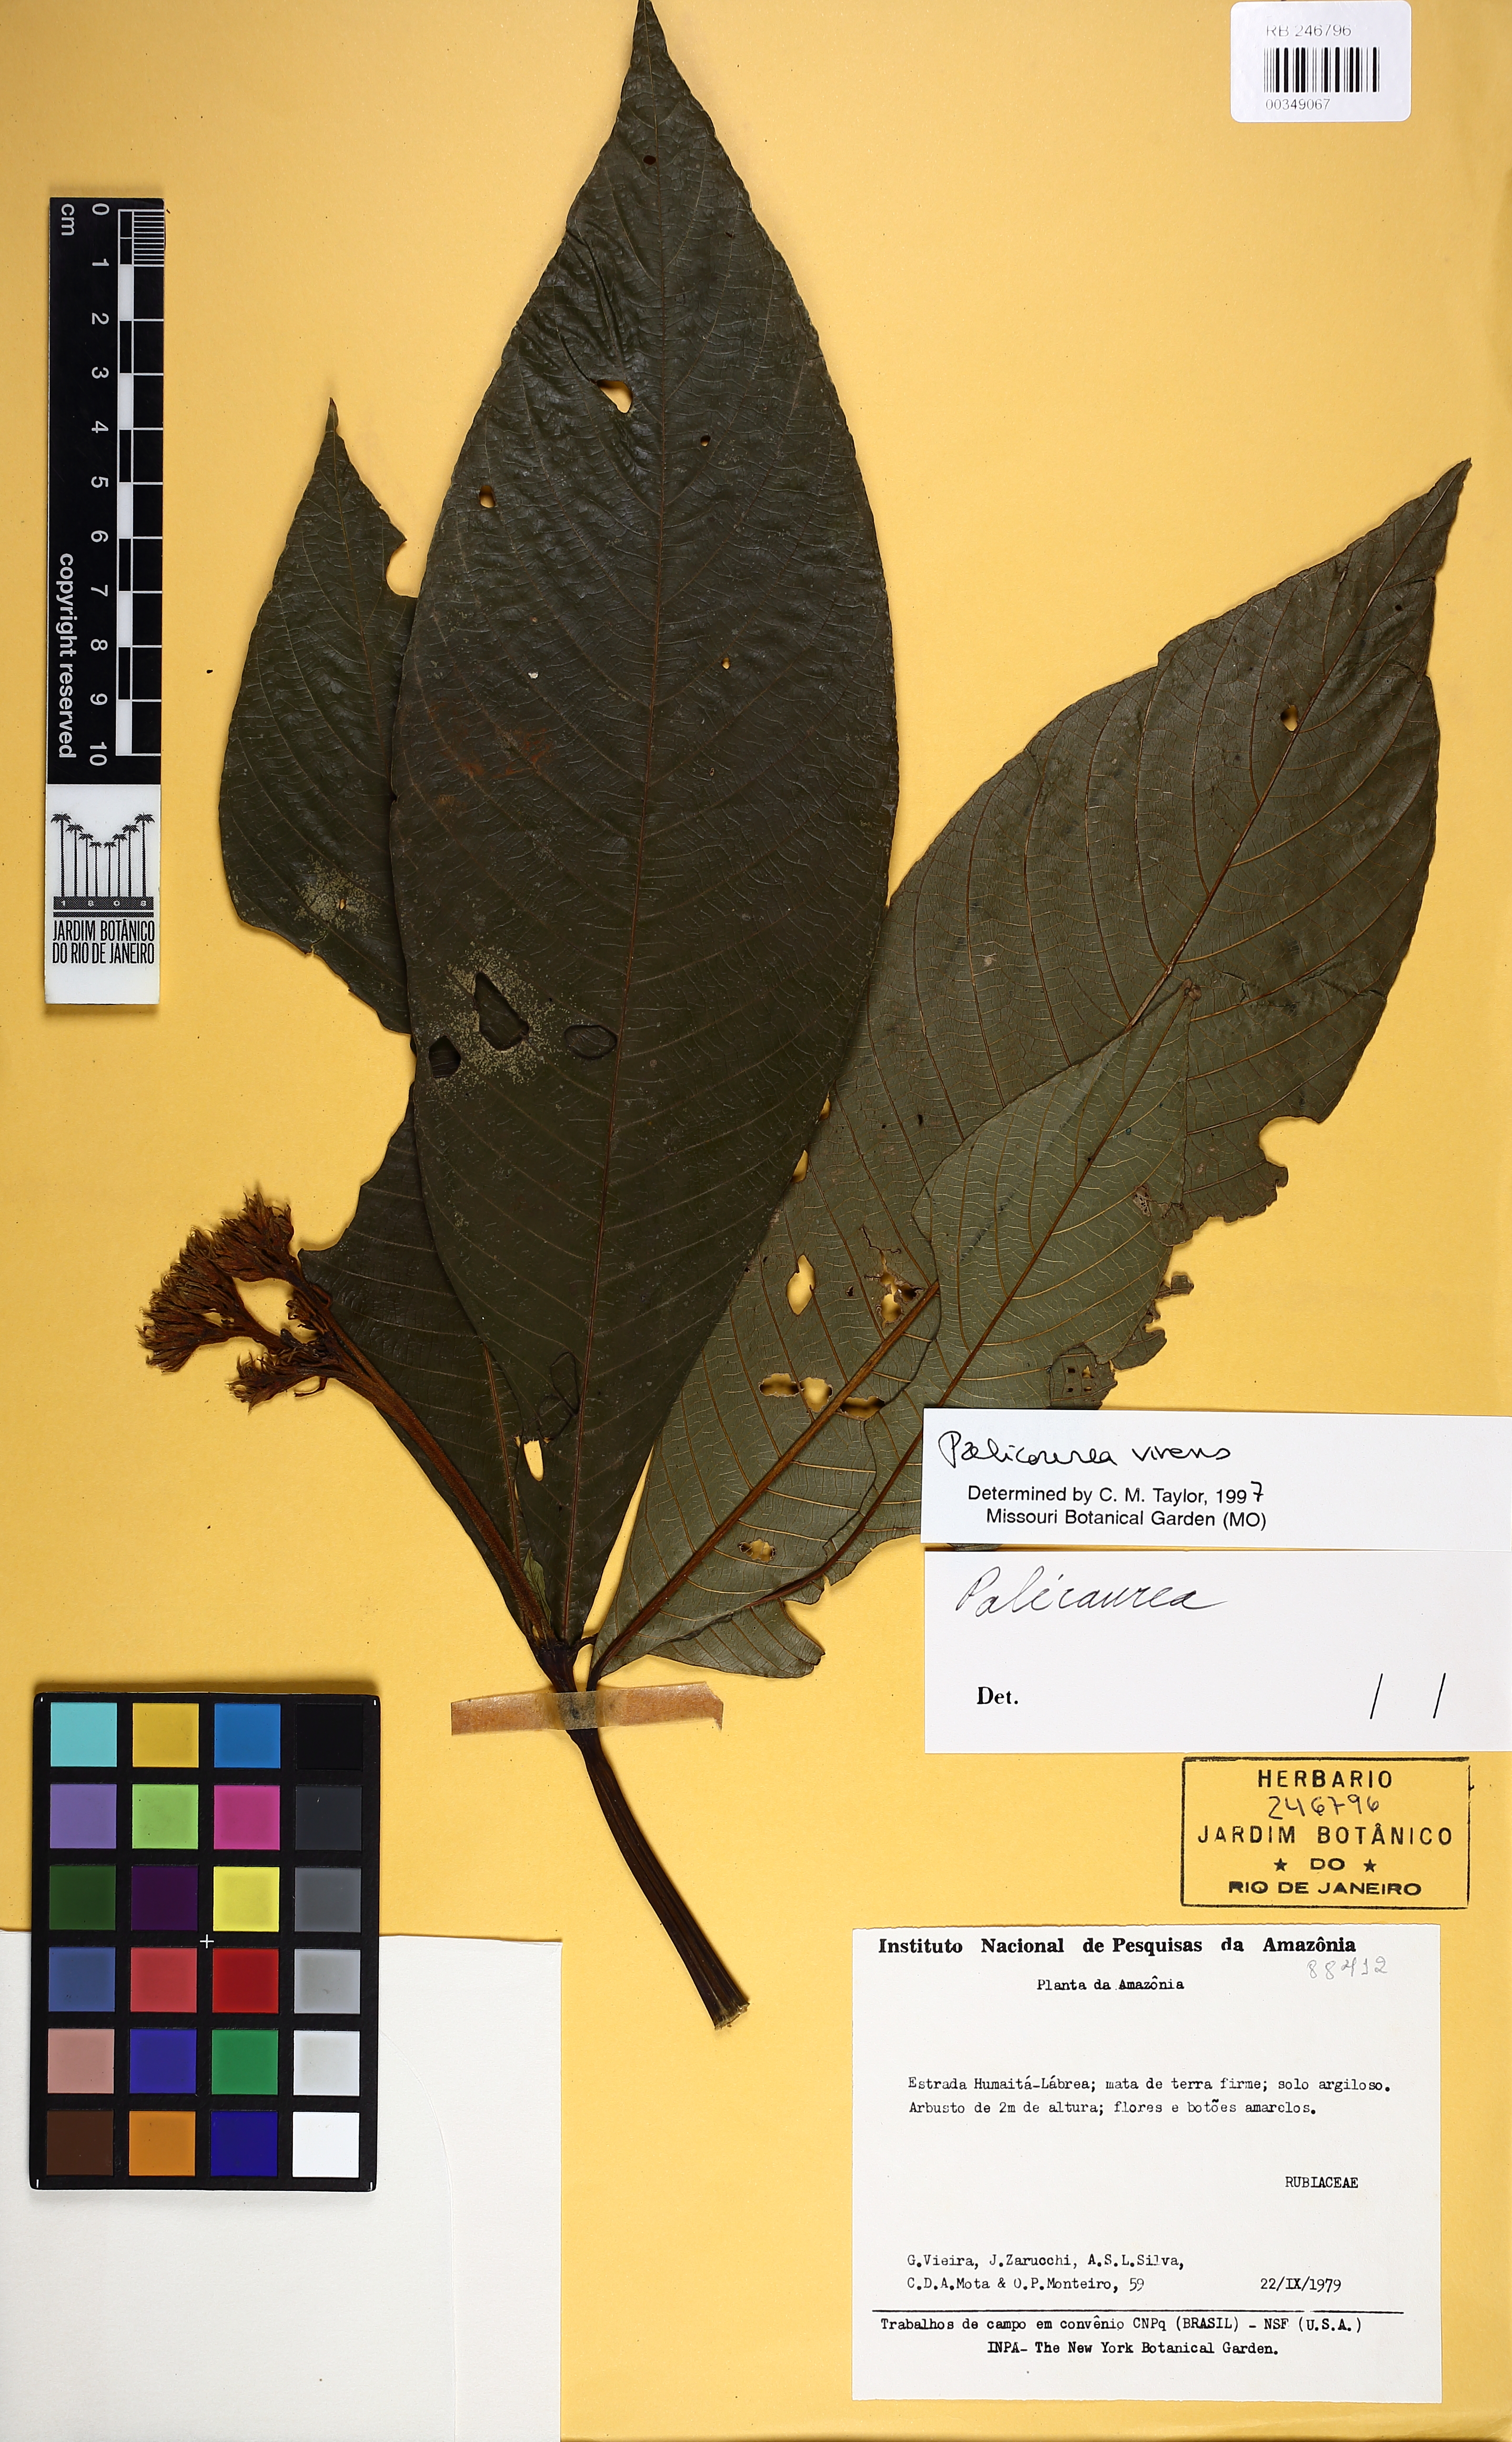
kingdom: Plantae
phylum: Tracheophyta
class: Magnoliopsida
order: Gentianales
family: Rubiaceae
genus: Palicourea
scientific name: Palicourea virens
